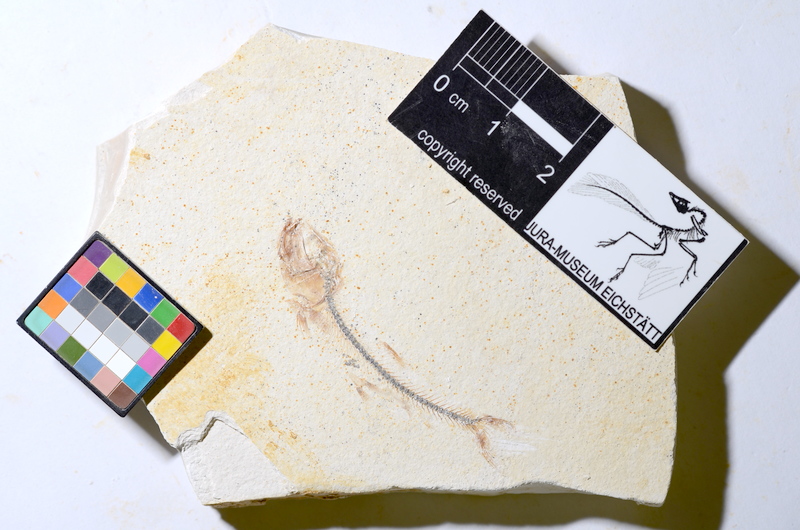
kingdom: Animalia
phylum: Chordata
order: Salmoniformes
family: Orthogonikleithridae
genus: Orthogonikleithrus
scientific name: Orthogonikleithrus hoelli
